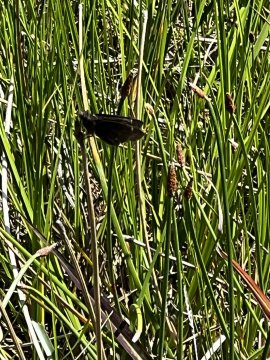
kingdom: Animalia
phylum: Arthropoda
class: Insecta
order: Lepidoptera
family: Hesperiidae
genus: Lerema
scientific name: Lerema accius
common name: Clouded Skipper
